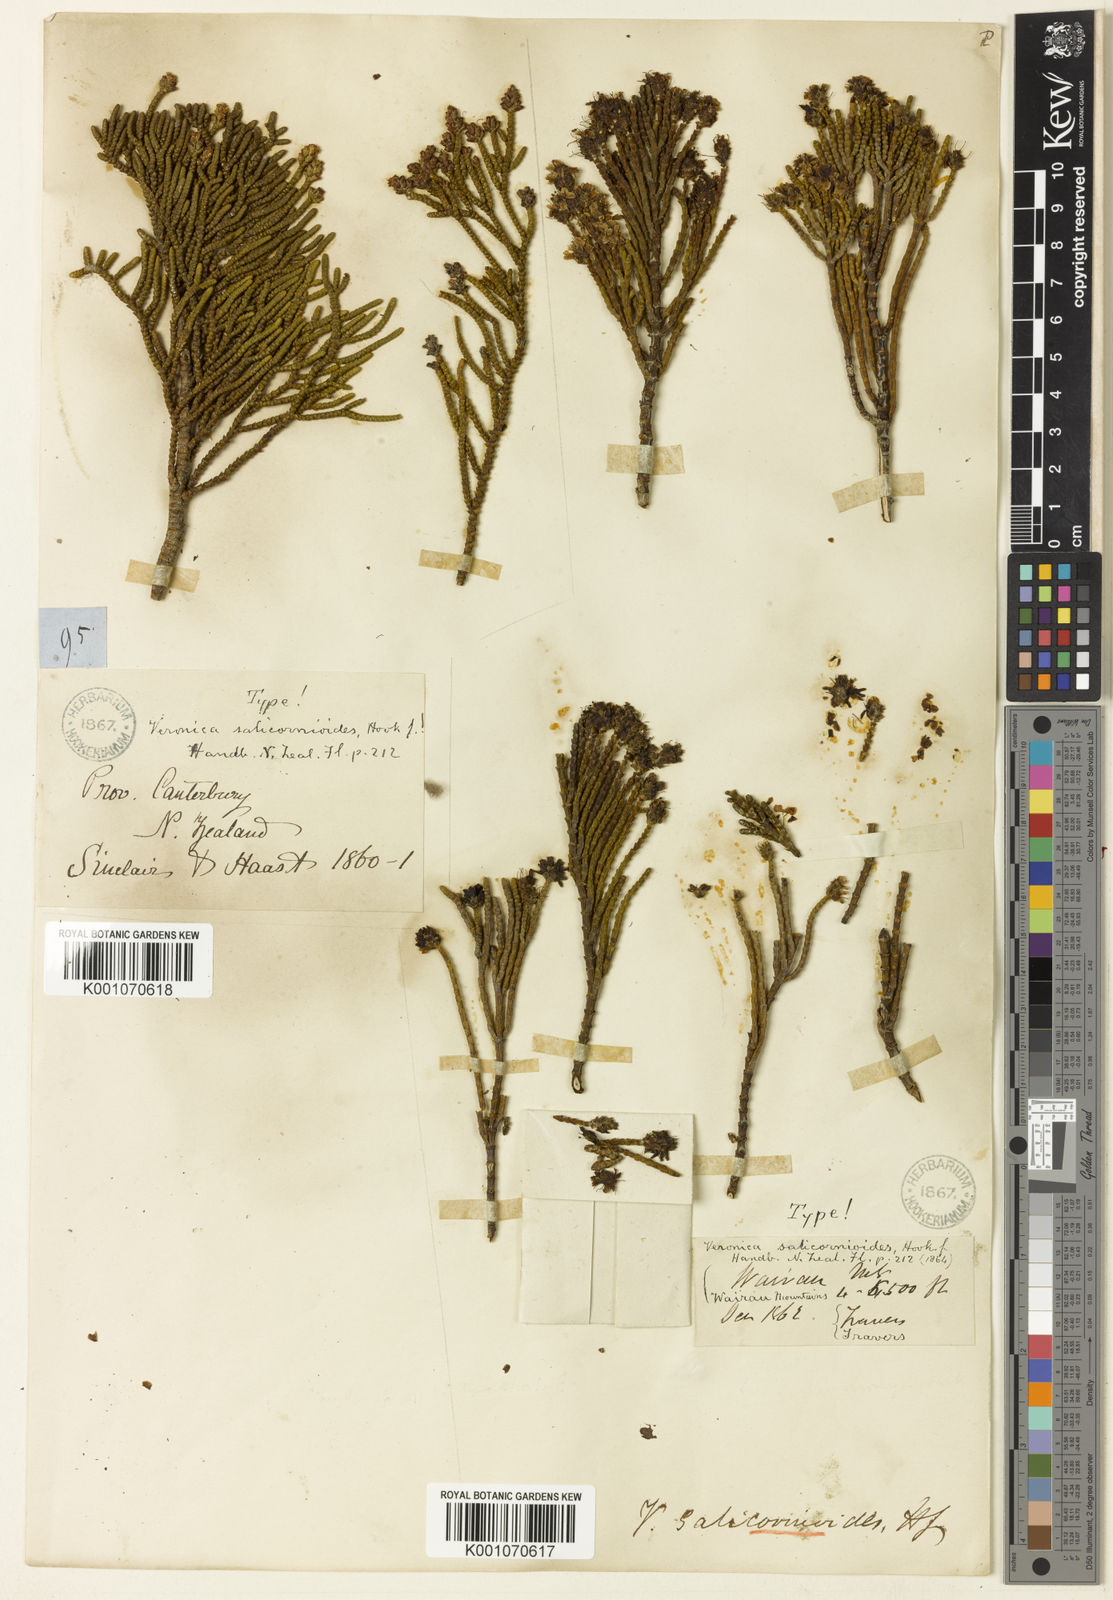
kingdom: Plantae
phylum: Tracheophyta
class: Magnoliopsida
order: Lamiales
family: Plantaginaceae
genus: Veronica
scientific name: Veronica salicornioides
